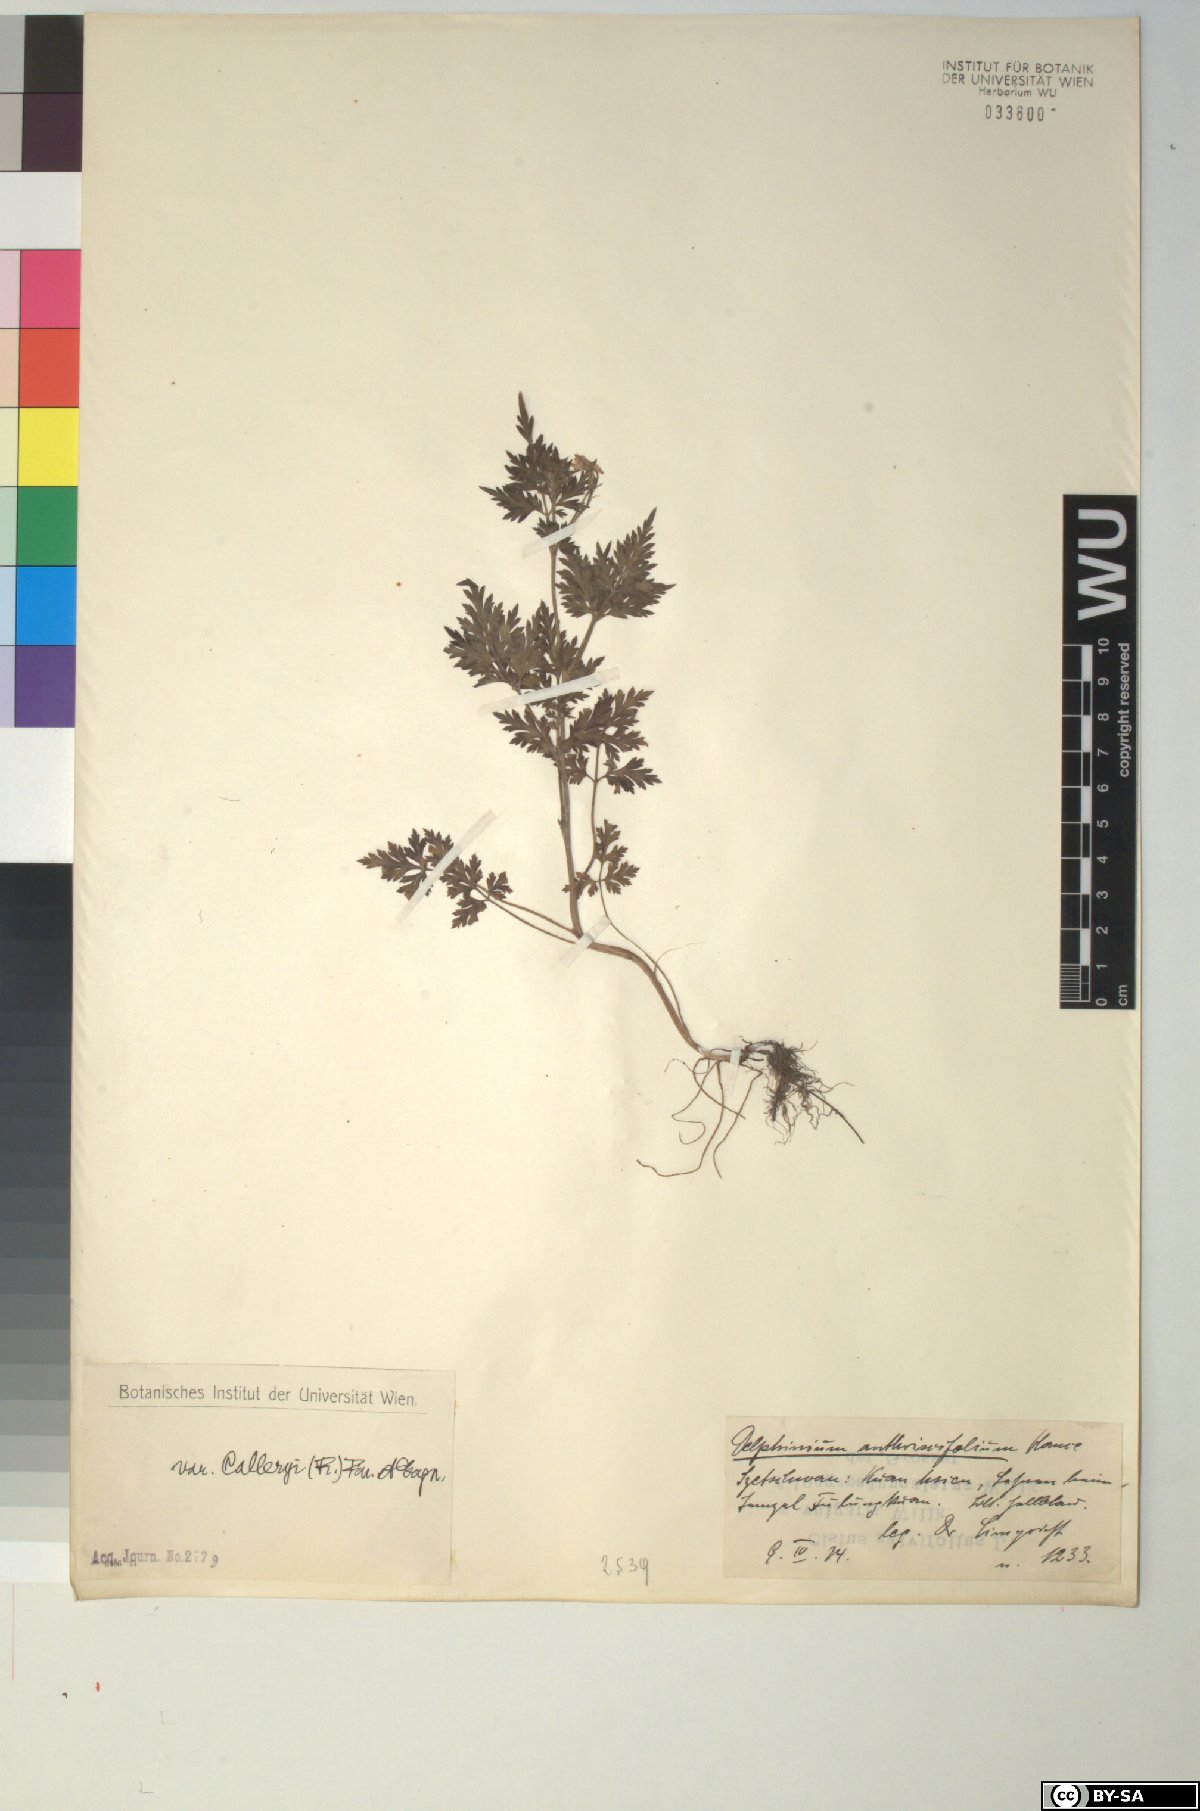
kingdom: Plantae
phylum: Tracheophyta
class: Magnoliopsida
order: Ranunculales
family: Ranunculaceae
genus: Delphinium
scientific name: Delphinium anthriscifolium
